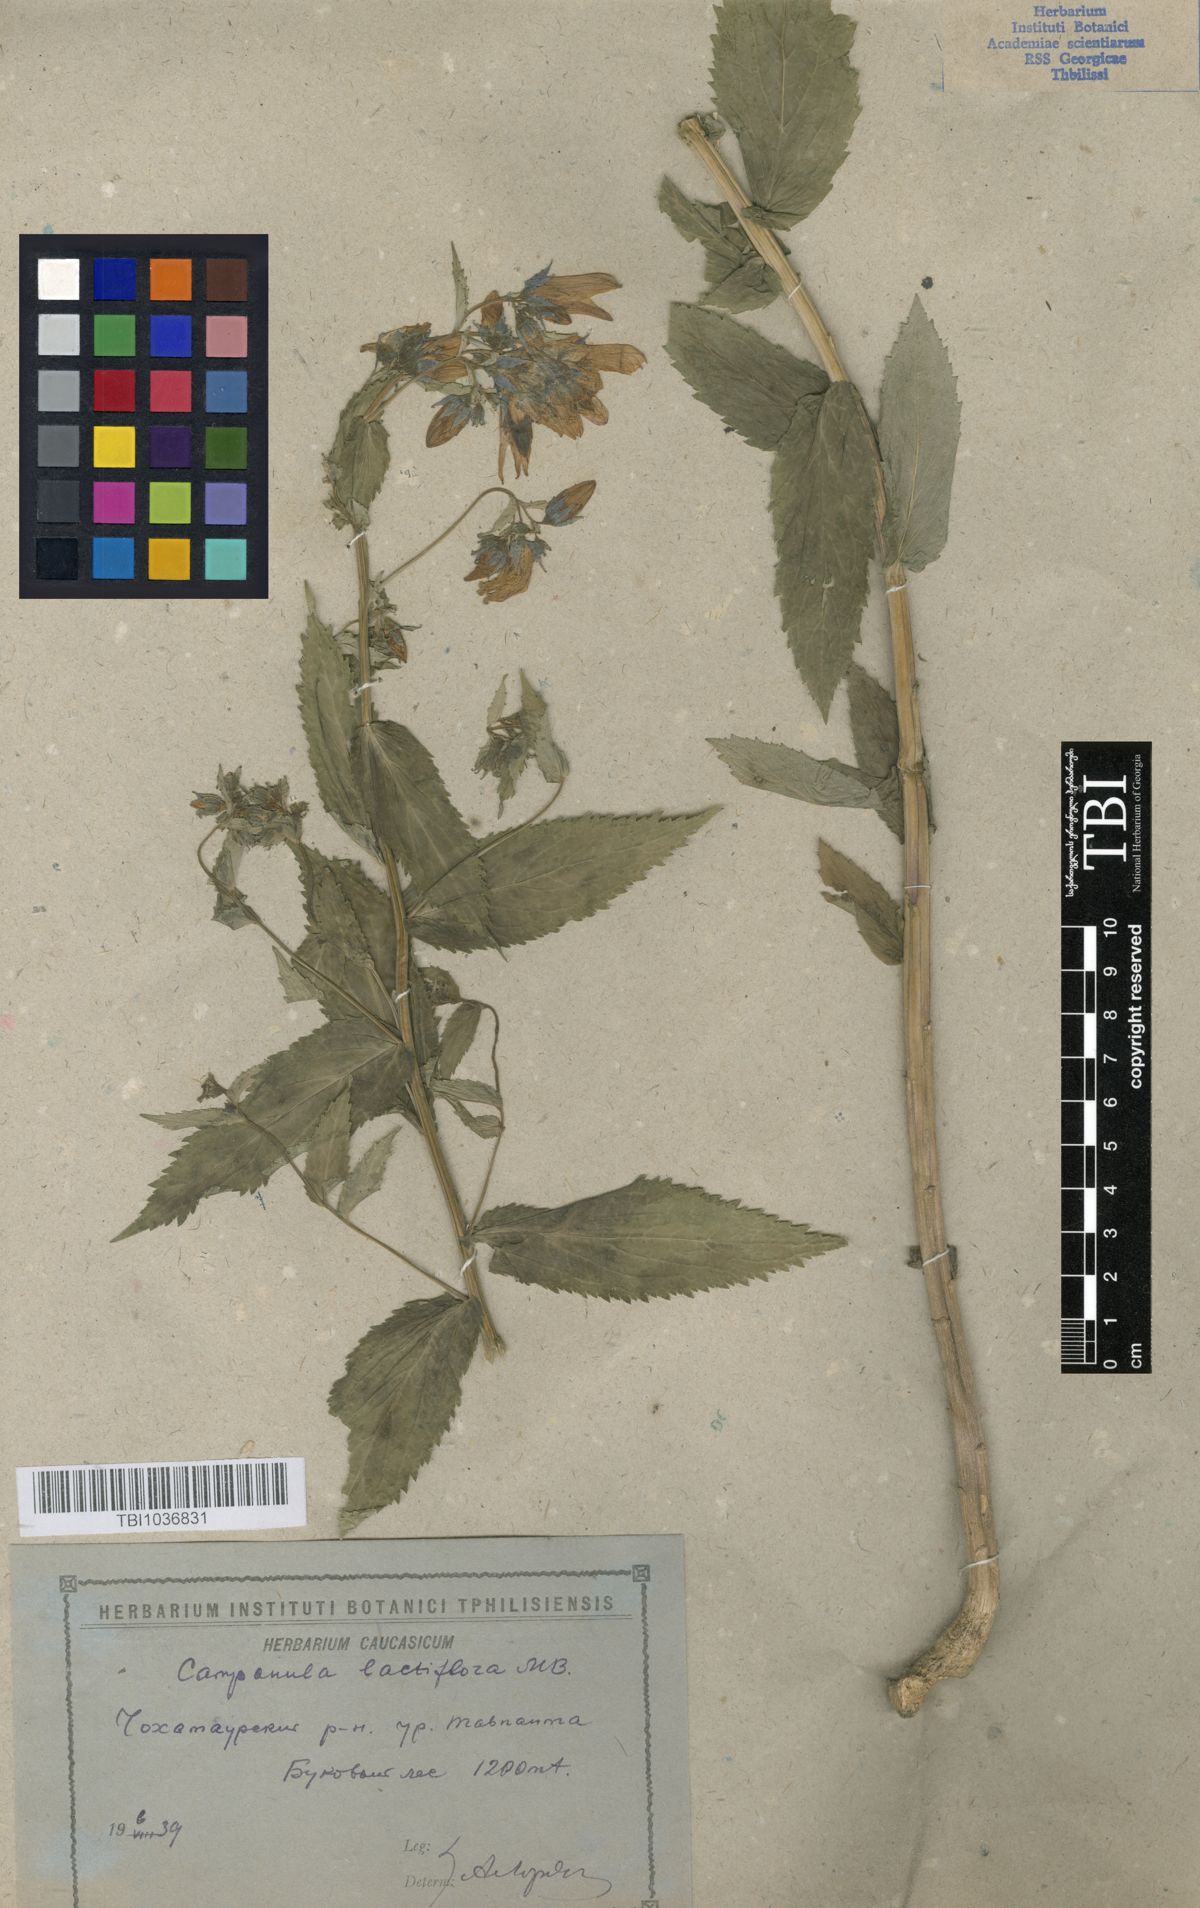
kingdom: Plantae
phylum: Tracheophyta
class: Magnoliopsida
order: Asterales
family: Campanulaceae
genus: Campanula
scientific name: Campanula lactiflora
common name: Milky bellflower
